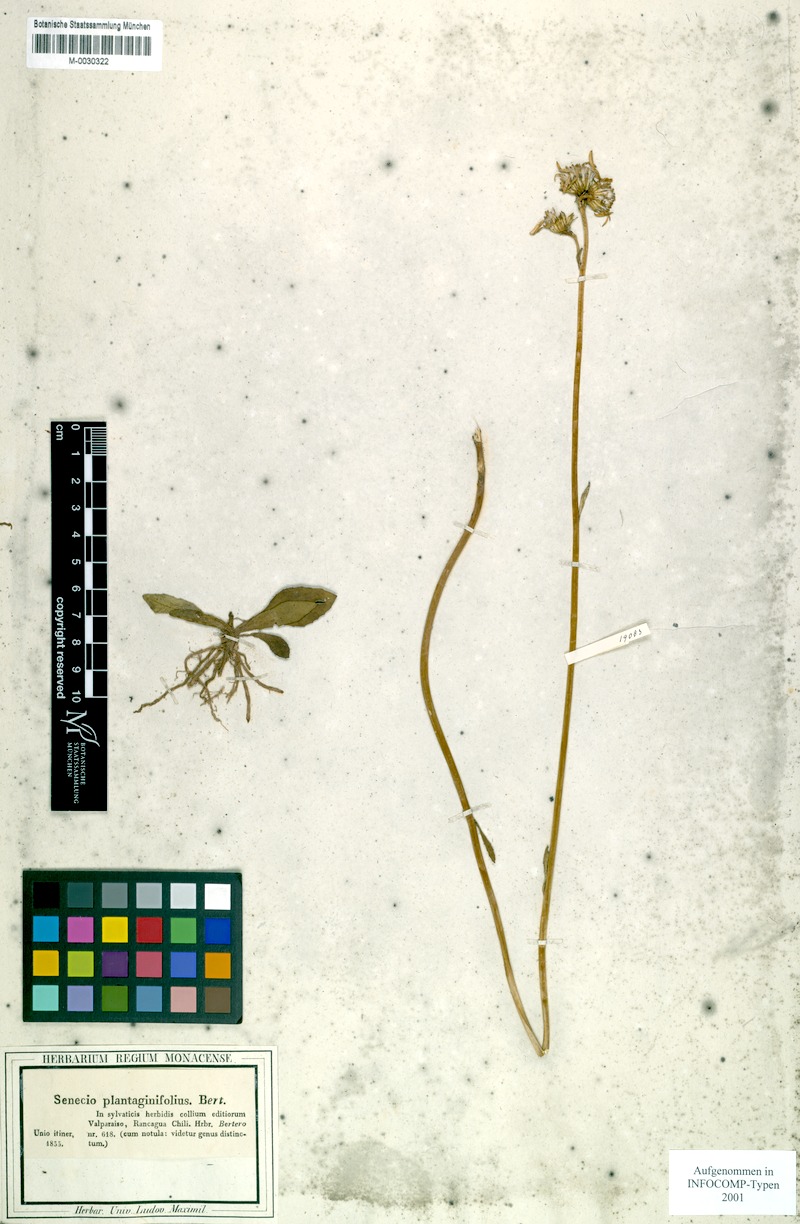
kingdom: Plantae
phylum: Tracheophyta
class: Magnoliopsida
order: Asterales
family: Asteraceae
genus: Haplosticha
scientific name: Haplosticha arnicoides
